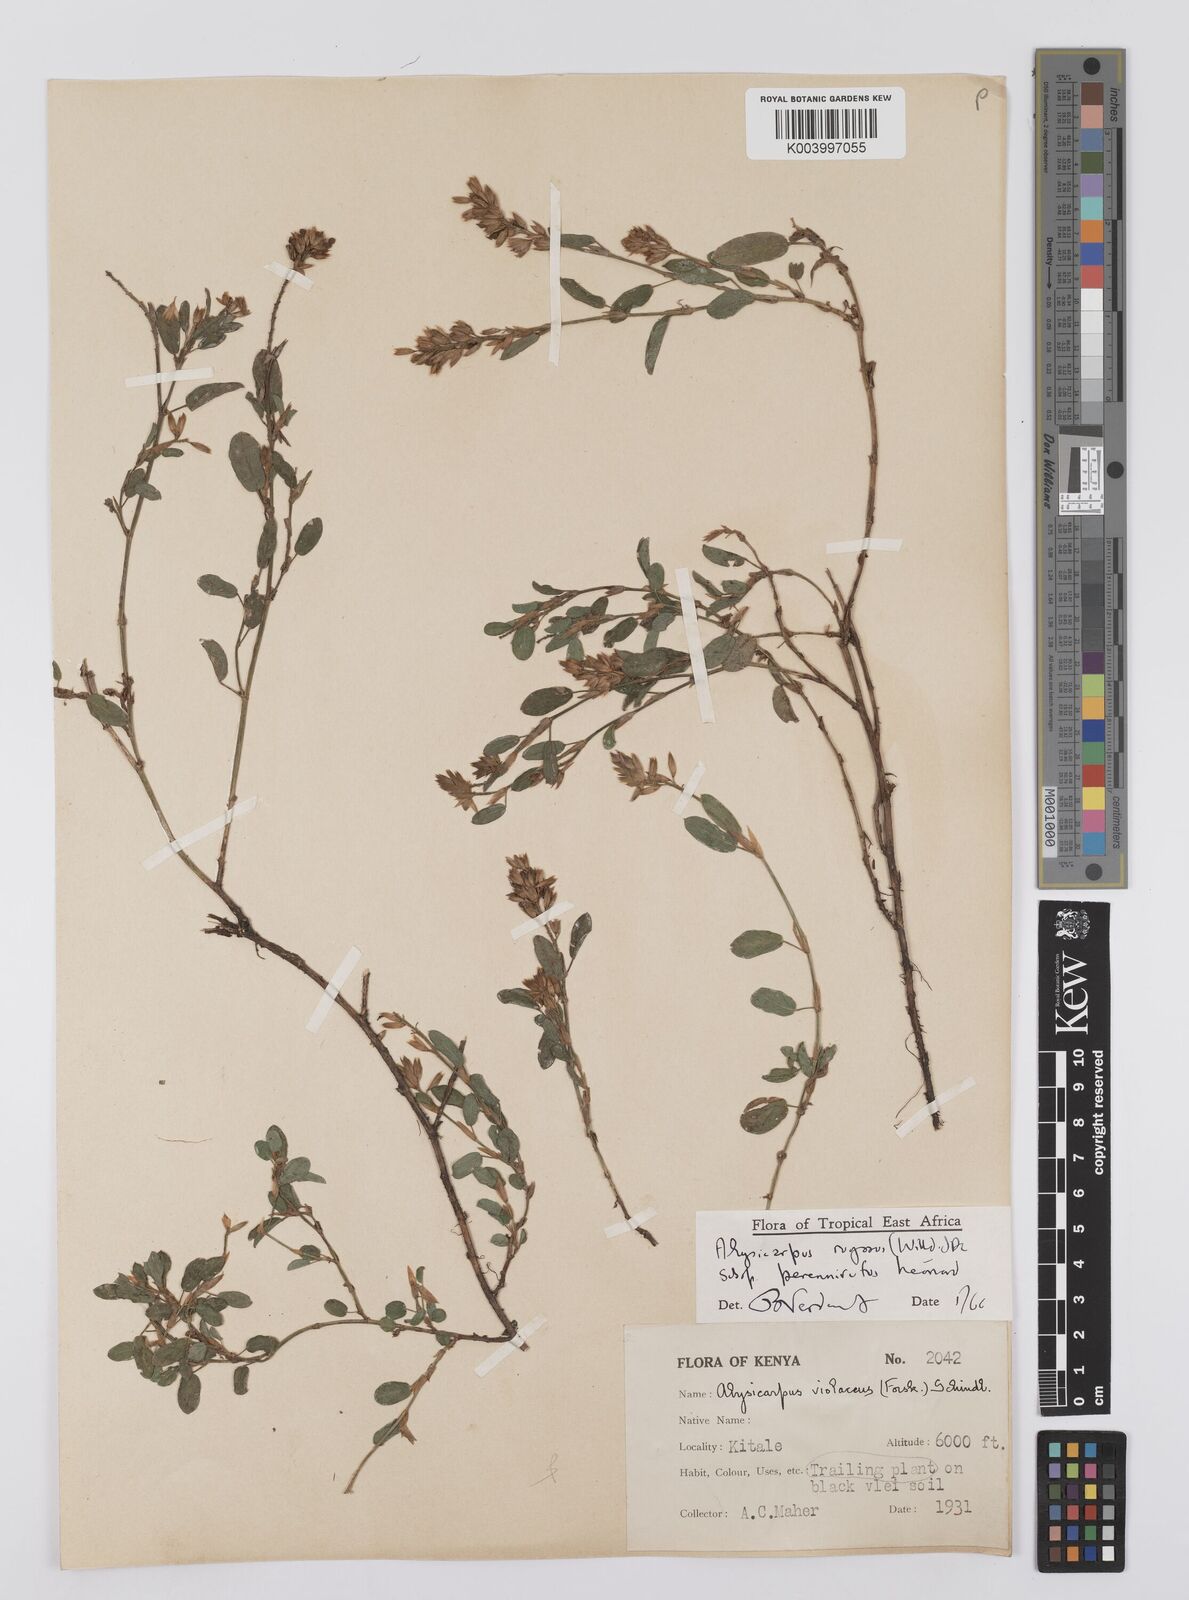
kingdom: Plantae
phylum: Tracheophyta
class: Magnoliopsida
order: Fabales
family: Fabaceae
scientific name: Fabaceae
